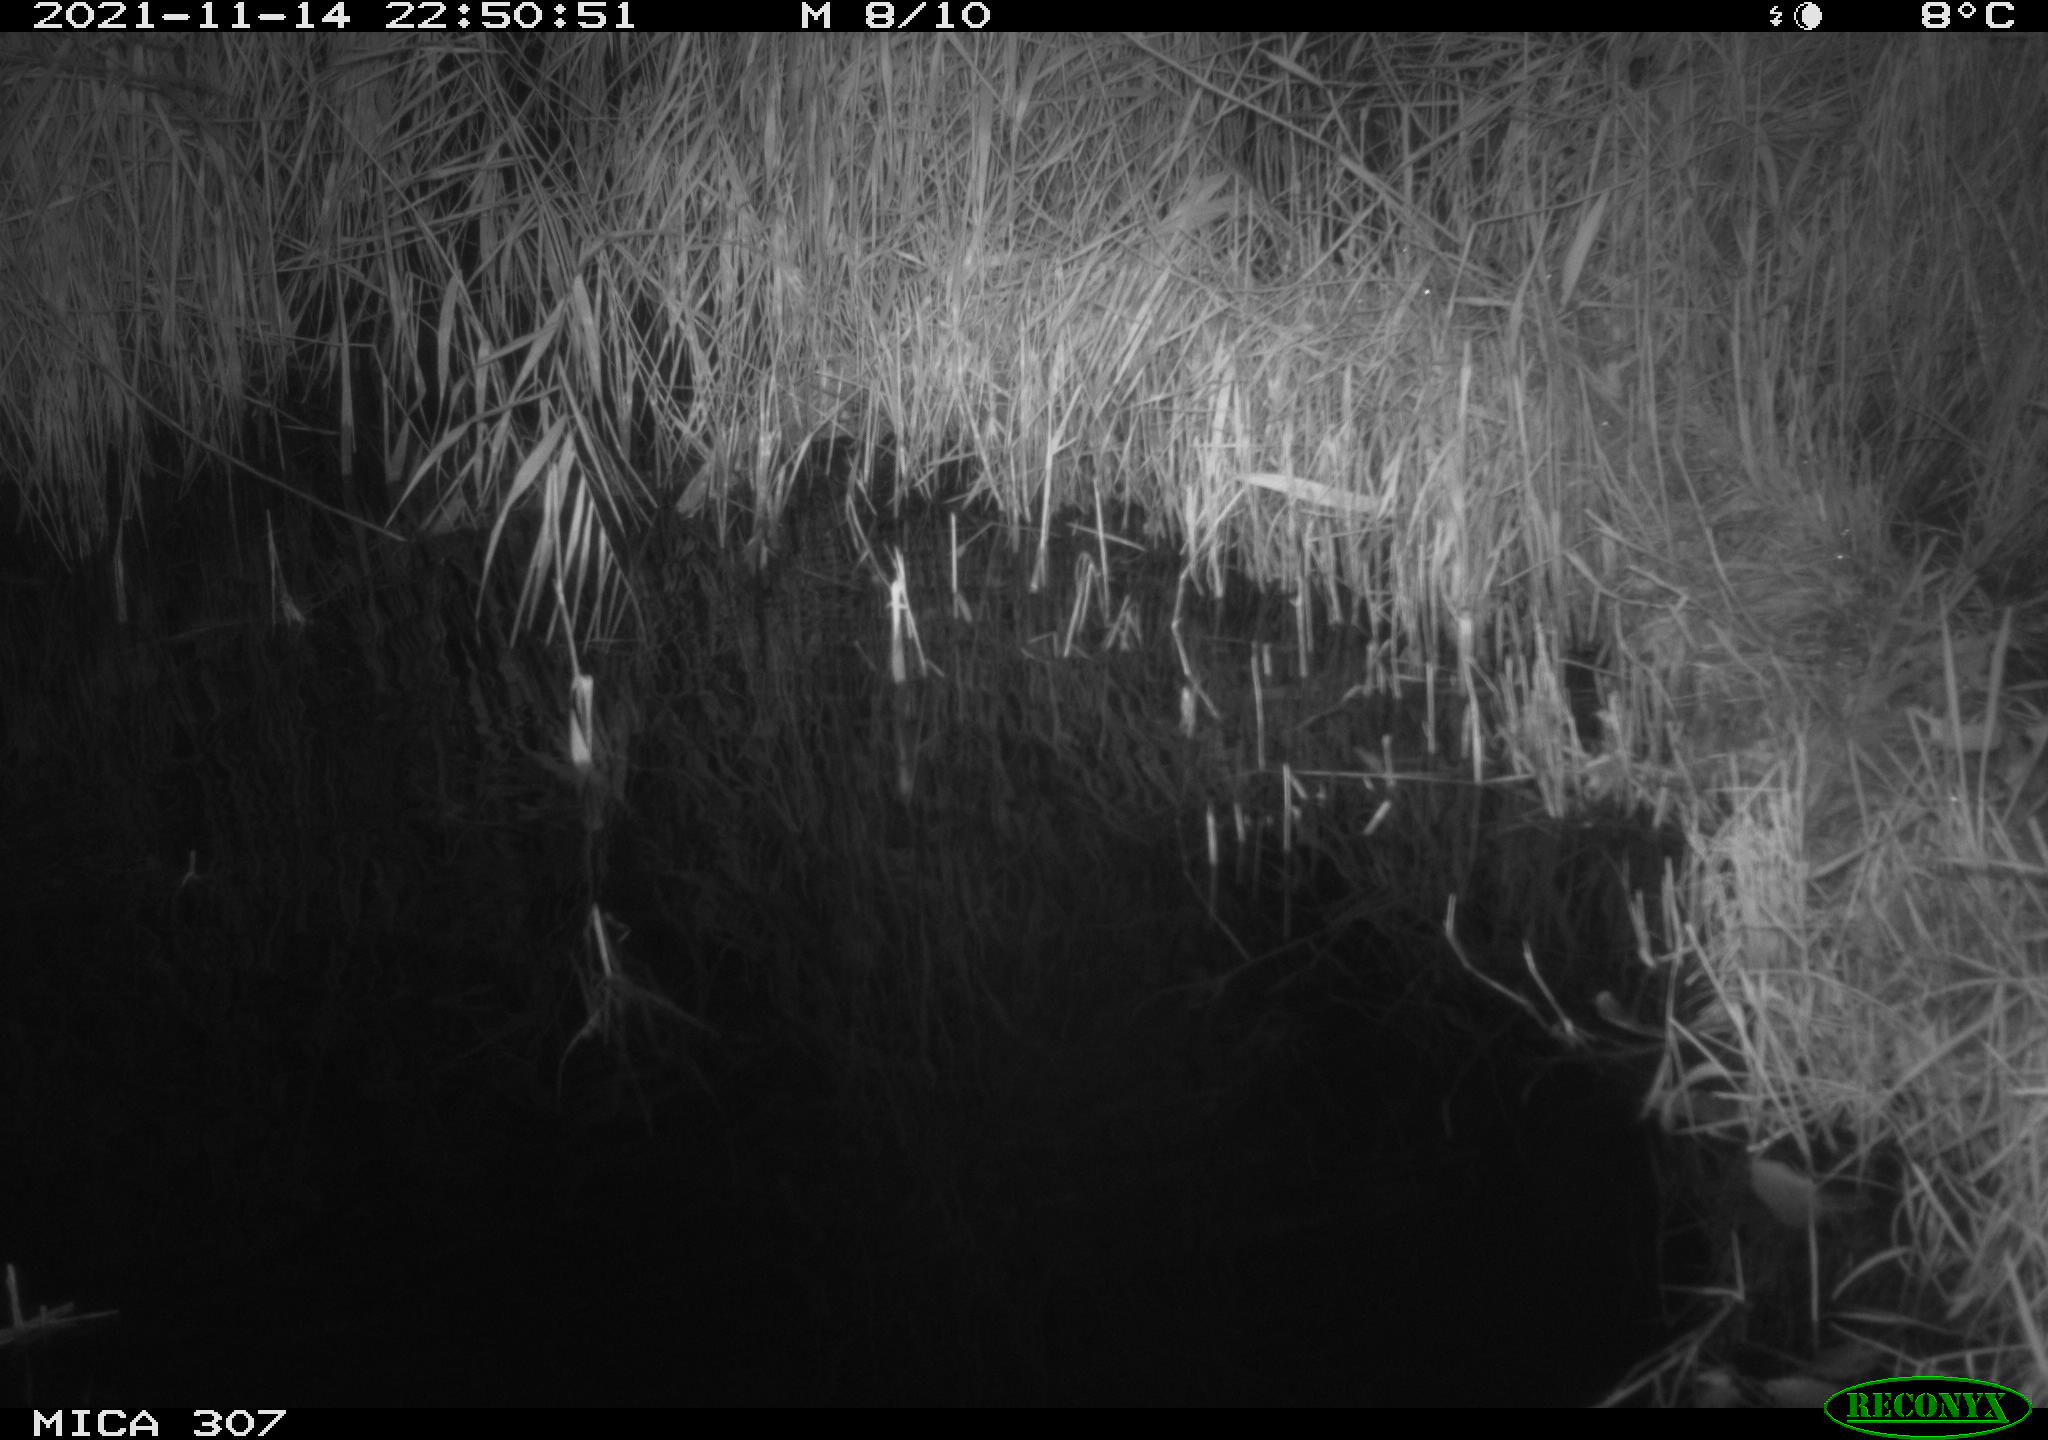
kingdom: Animalia
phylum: Chordata
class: Mammalia
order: Rodentia
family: Muridae
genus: Rattus
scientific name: Rattus norvegicus
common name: Brown rat
